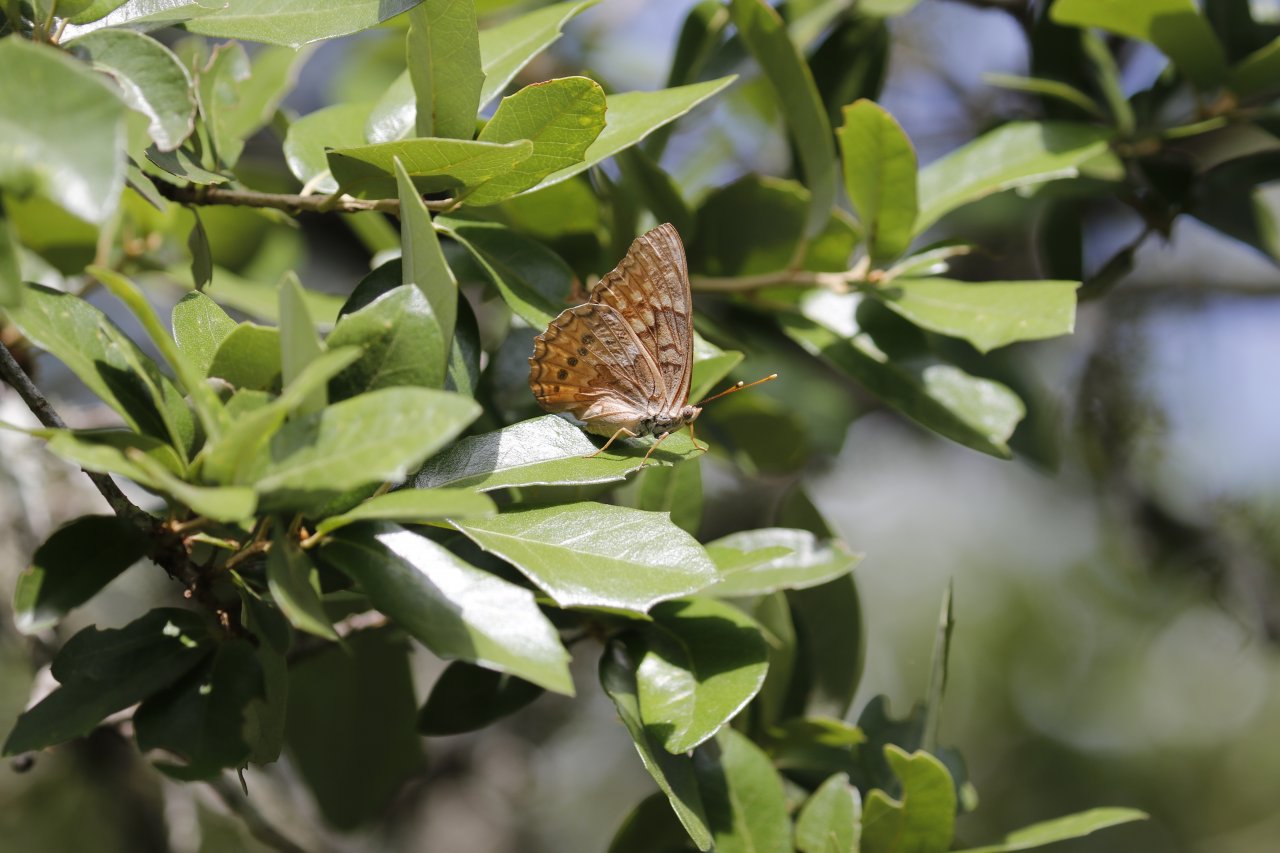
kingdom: Animalia
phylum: Arthropoda
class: Insecta
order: Lepidoptera
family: Nymphalidae
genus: Asterocampa
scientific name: Asterocampa clyton
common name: Tawny Emperor
